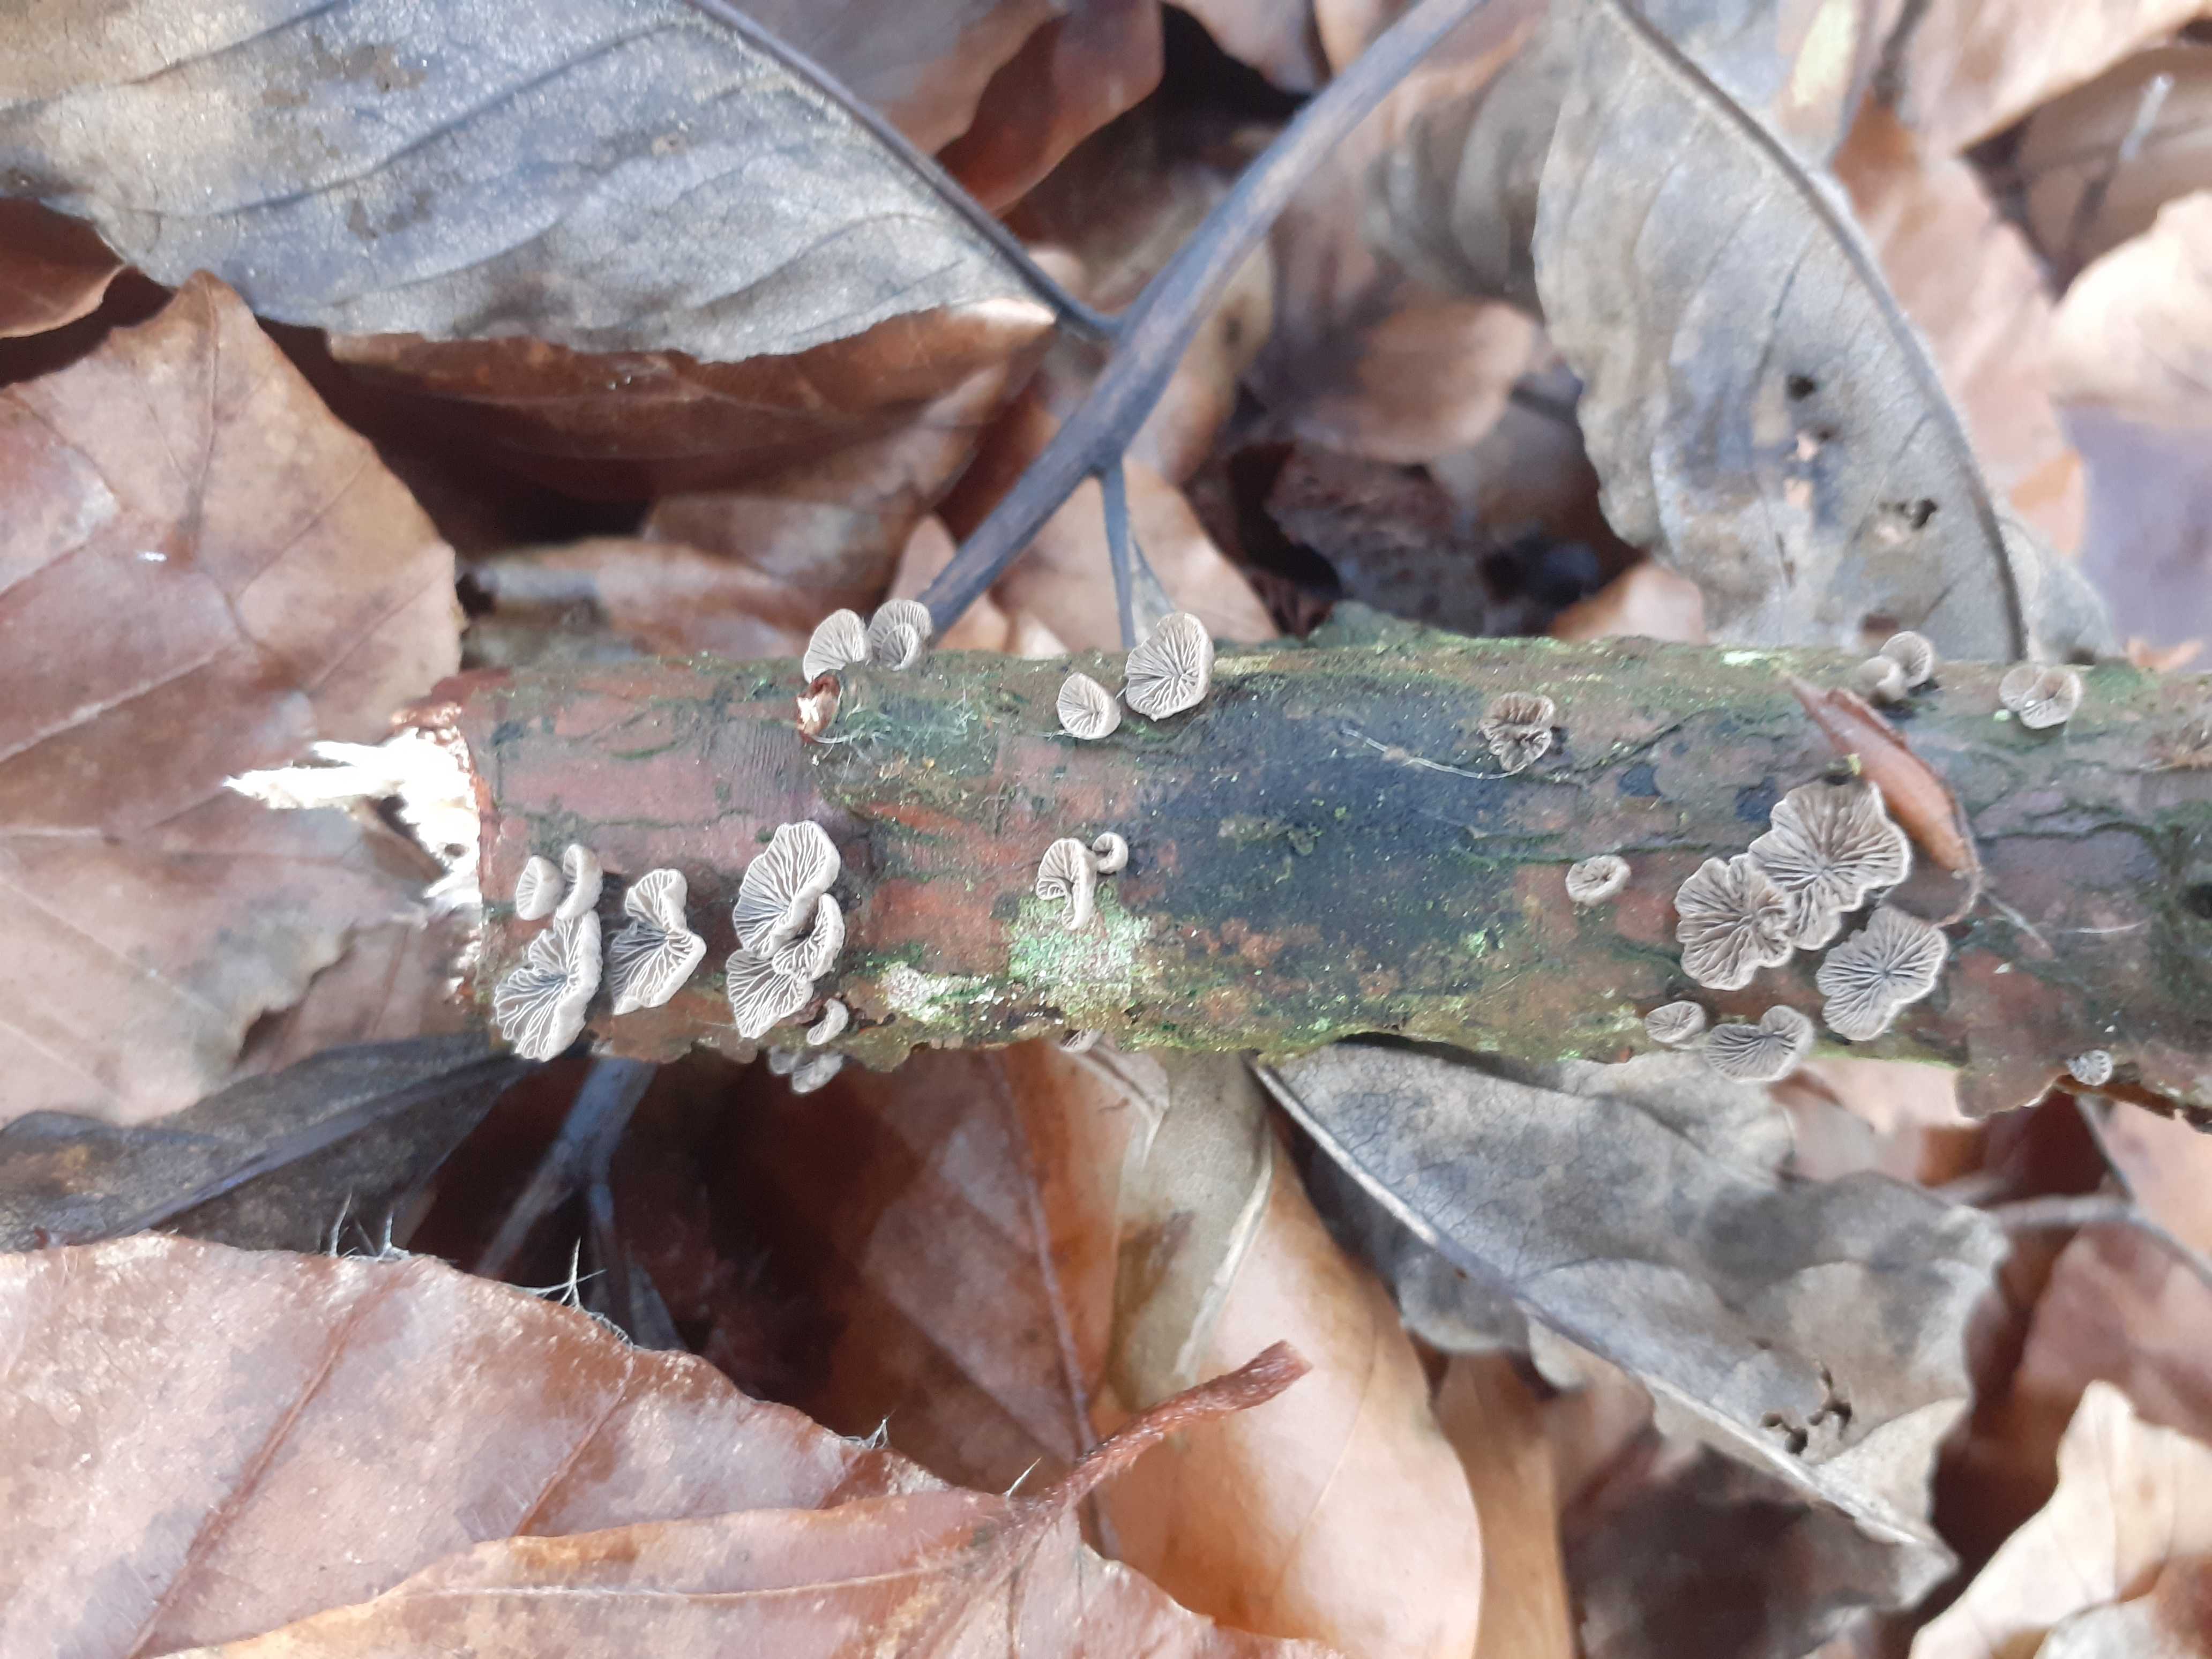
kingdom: Fungi
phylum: Basidiomycota
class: Agaricomycetes
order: Agaricales
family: Pleurotaceae
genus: Resupinatus
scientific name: Resupinatus trichotis
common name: mørkfiltet barkhat
